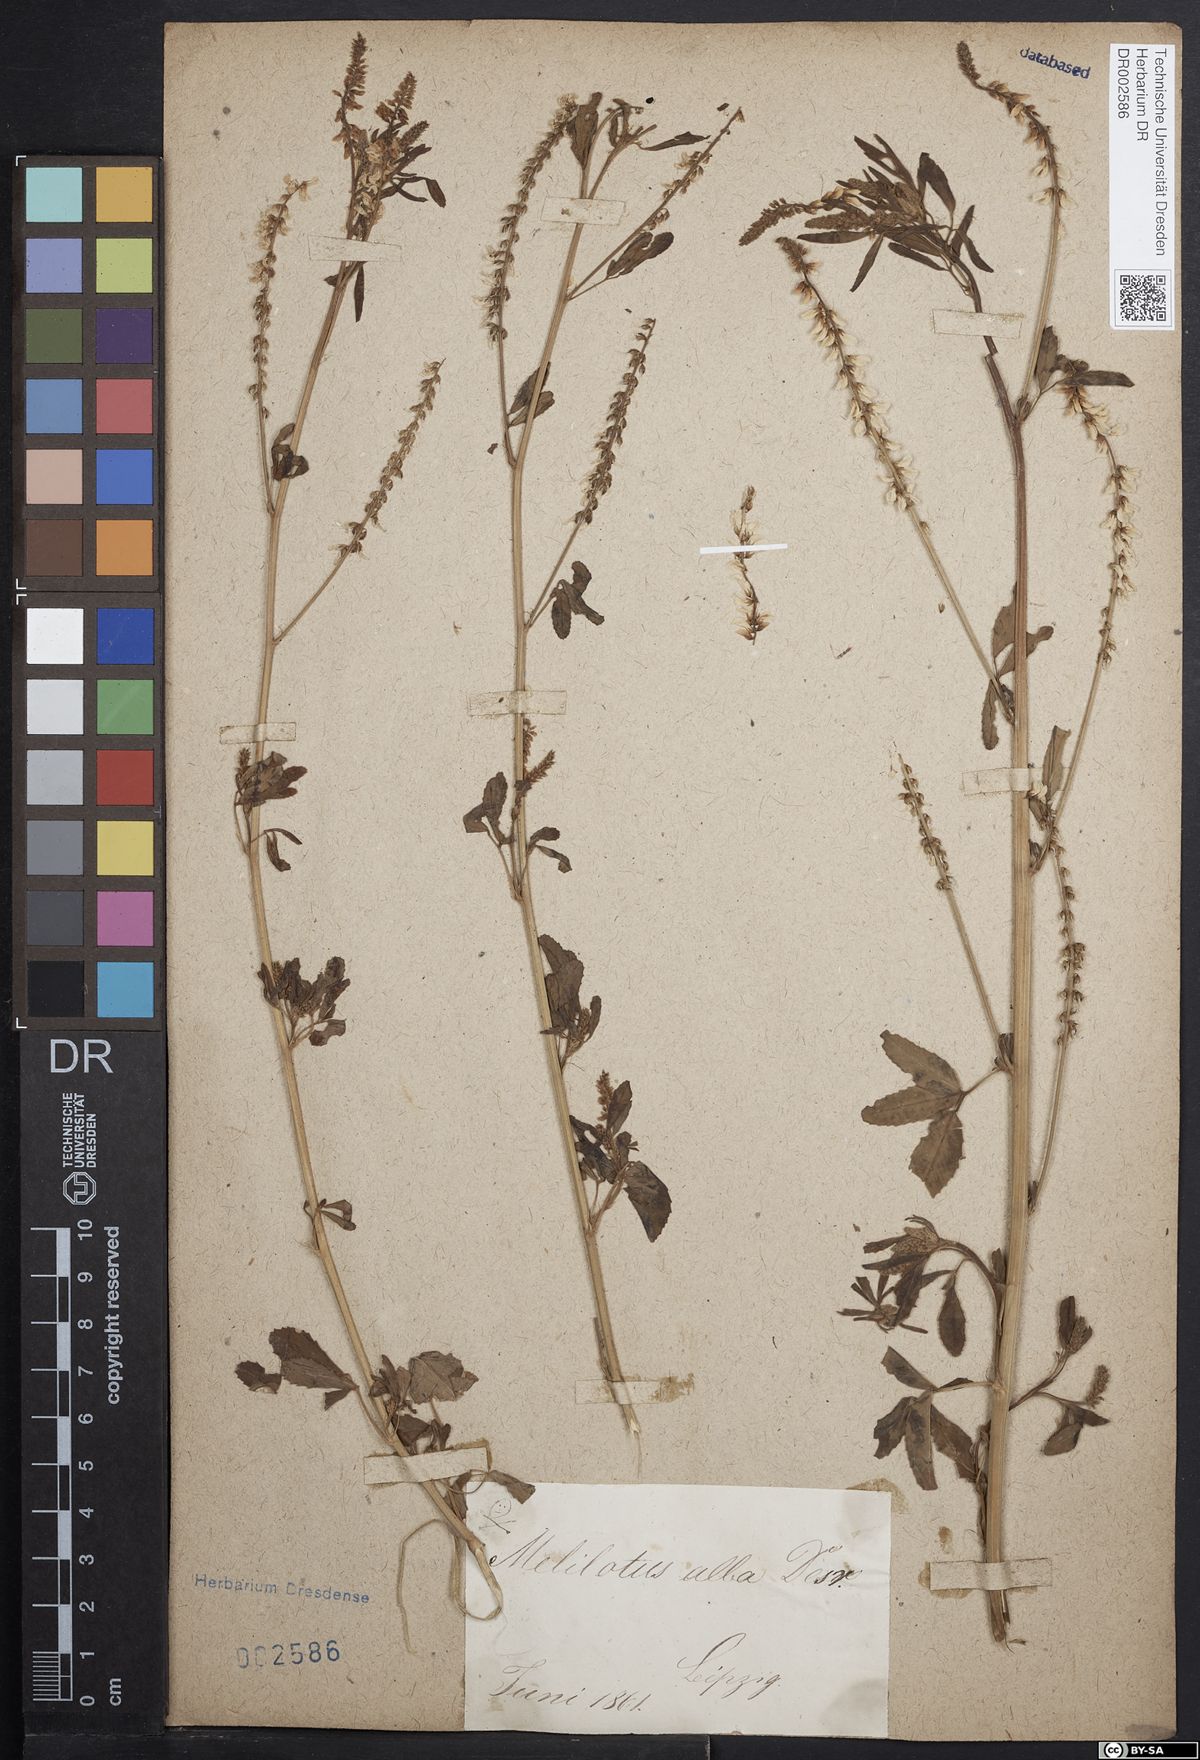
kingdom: Plantae
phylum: Tracheophyta
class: Magnoliopsida
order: Fabales
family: Fabaceae
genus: Melilotus
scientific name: Melilotus albus
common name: White melilot
